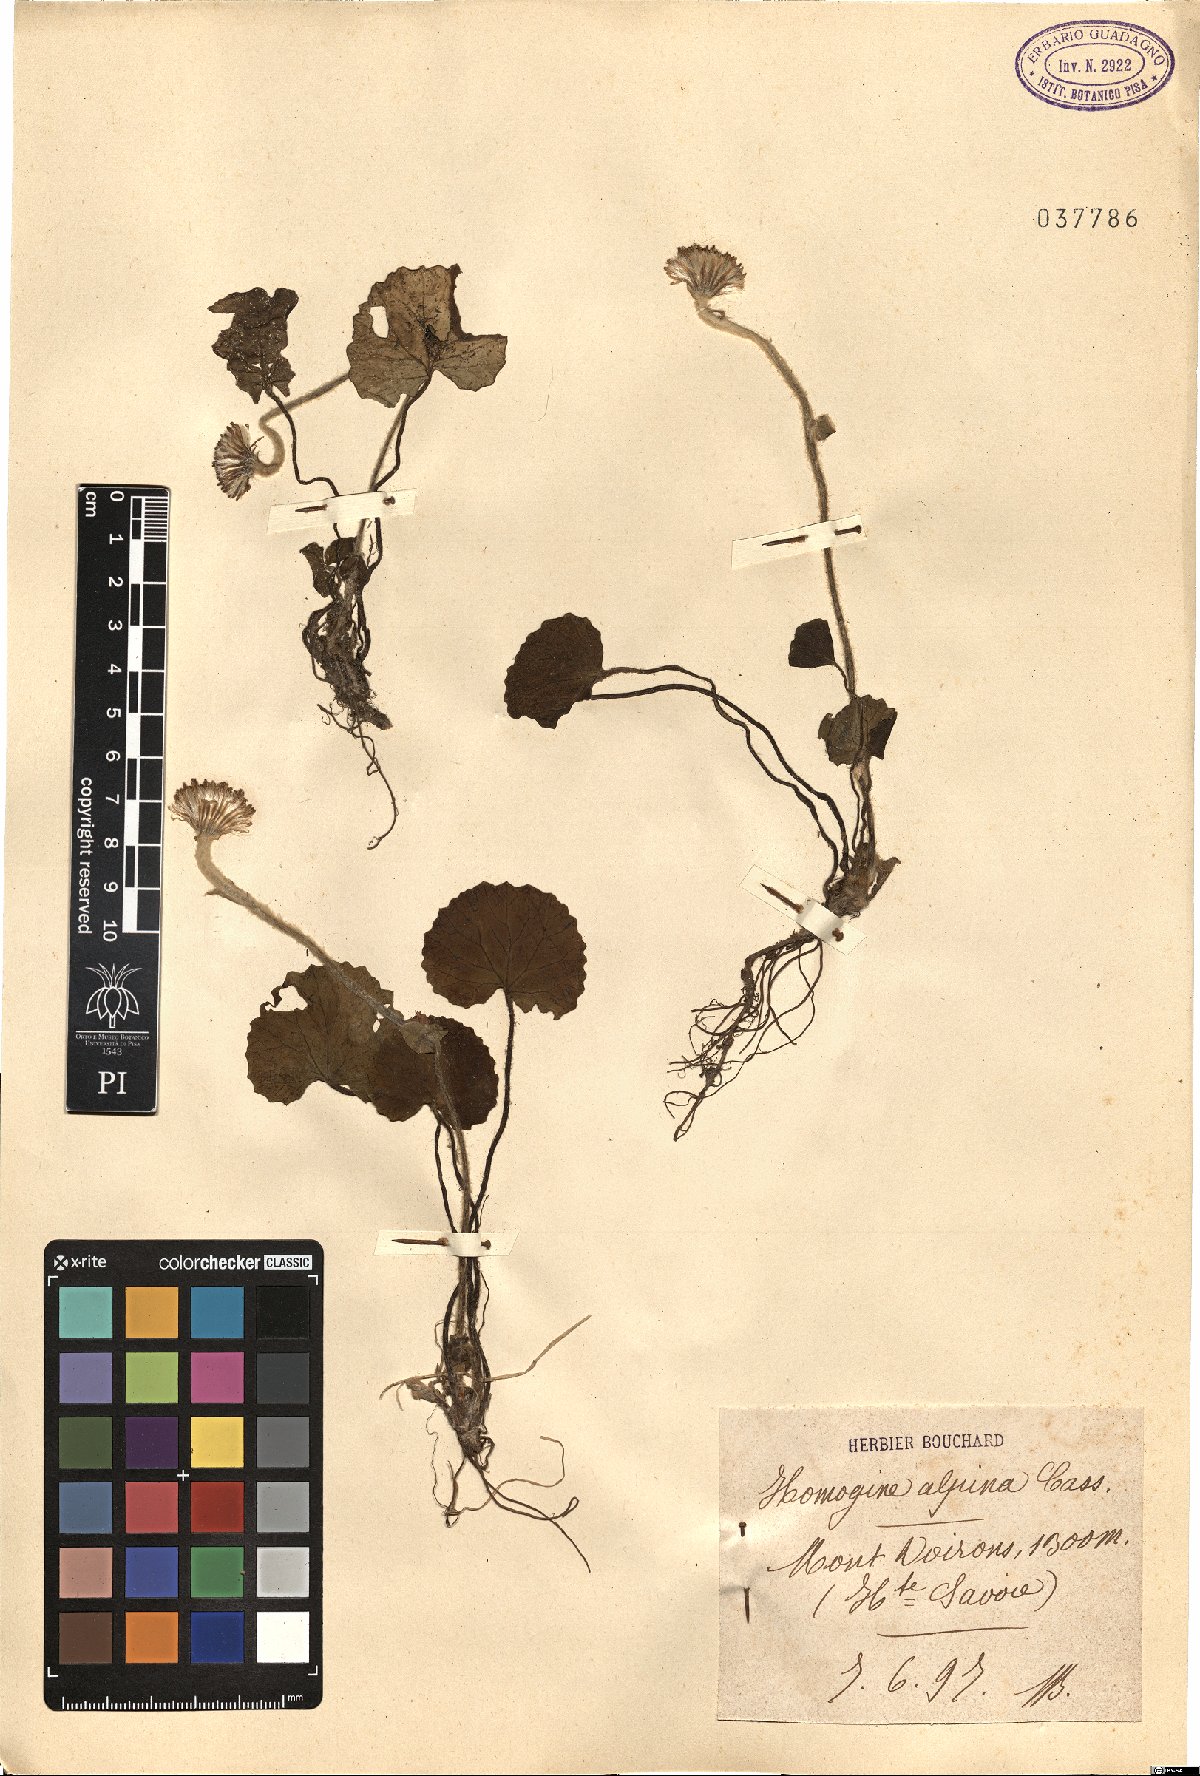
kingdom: Plantae
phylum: Tracheophyta
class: Magnoliopsida
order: Asterales
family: Asteraceae
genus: Homogyne
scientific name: Homogyne alpina
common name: Purple colt's-foot
